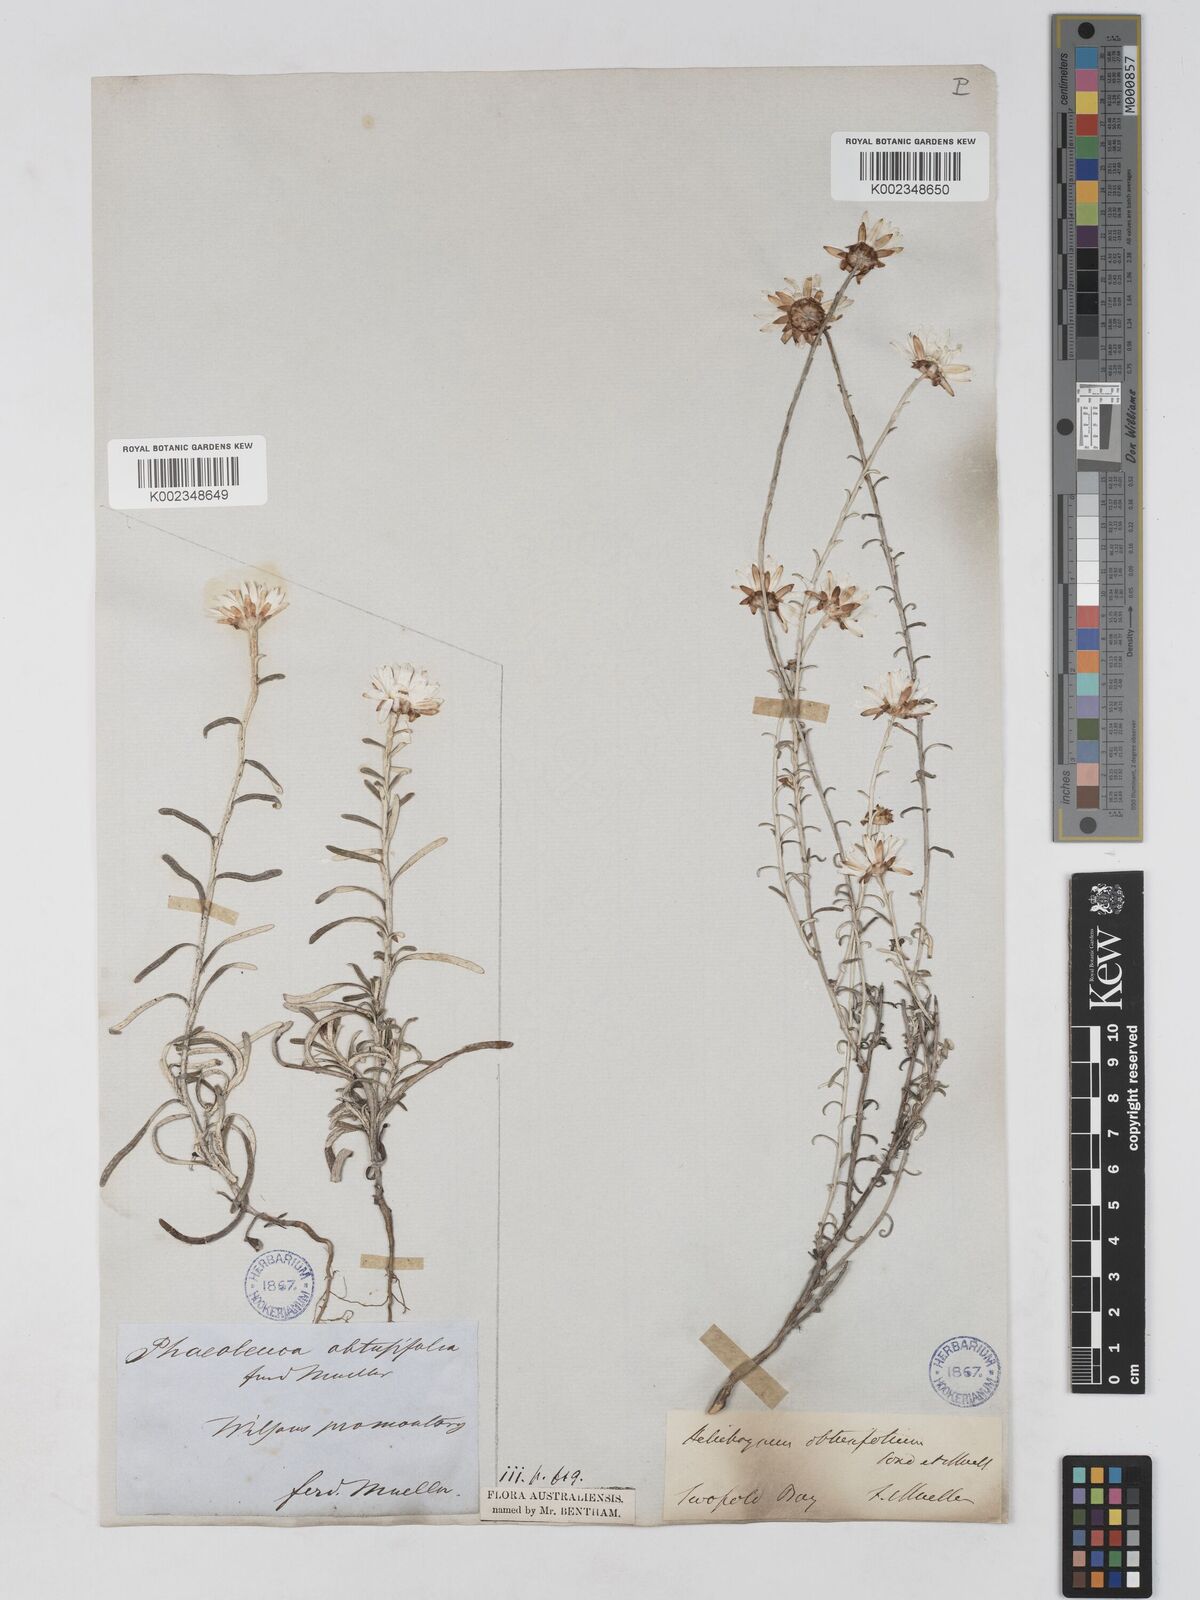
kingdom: Plantae
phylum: Tracheophyta
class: Magnoliopsida
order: Asterales
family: Asteraceae
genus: Argentipallium
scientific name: Argentipallium obtusifolium
